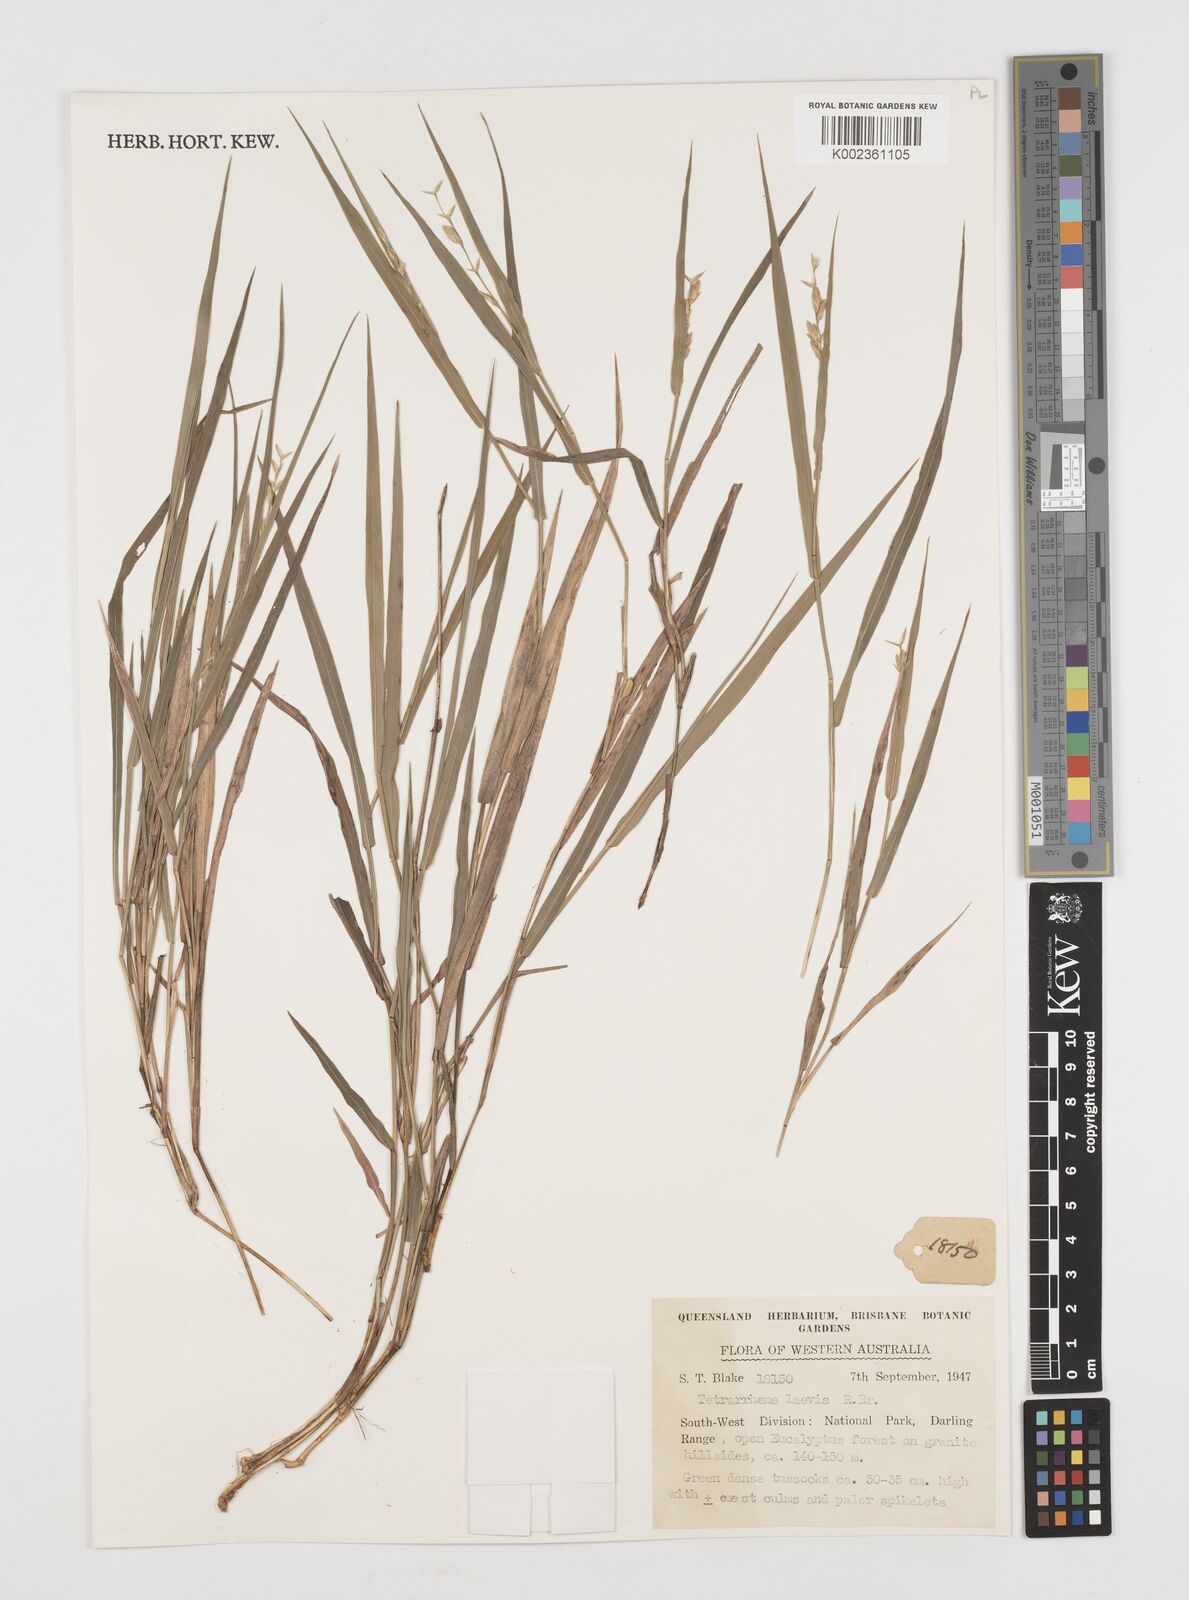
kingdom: Plantae
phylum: Tracheophyta
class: Liliopsida
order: Poales
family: Poaceae
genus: Tetrarrhena
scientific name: Tetrarrhena laevis
